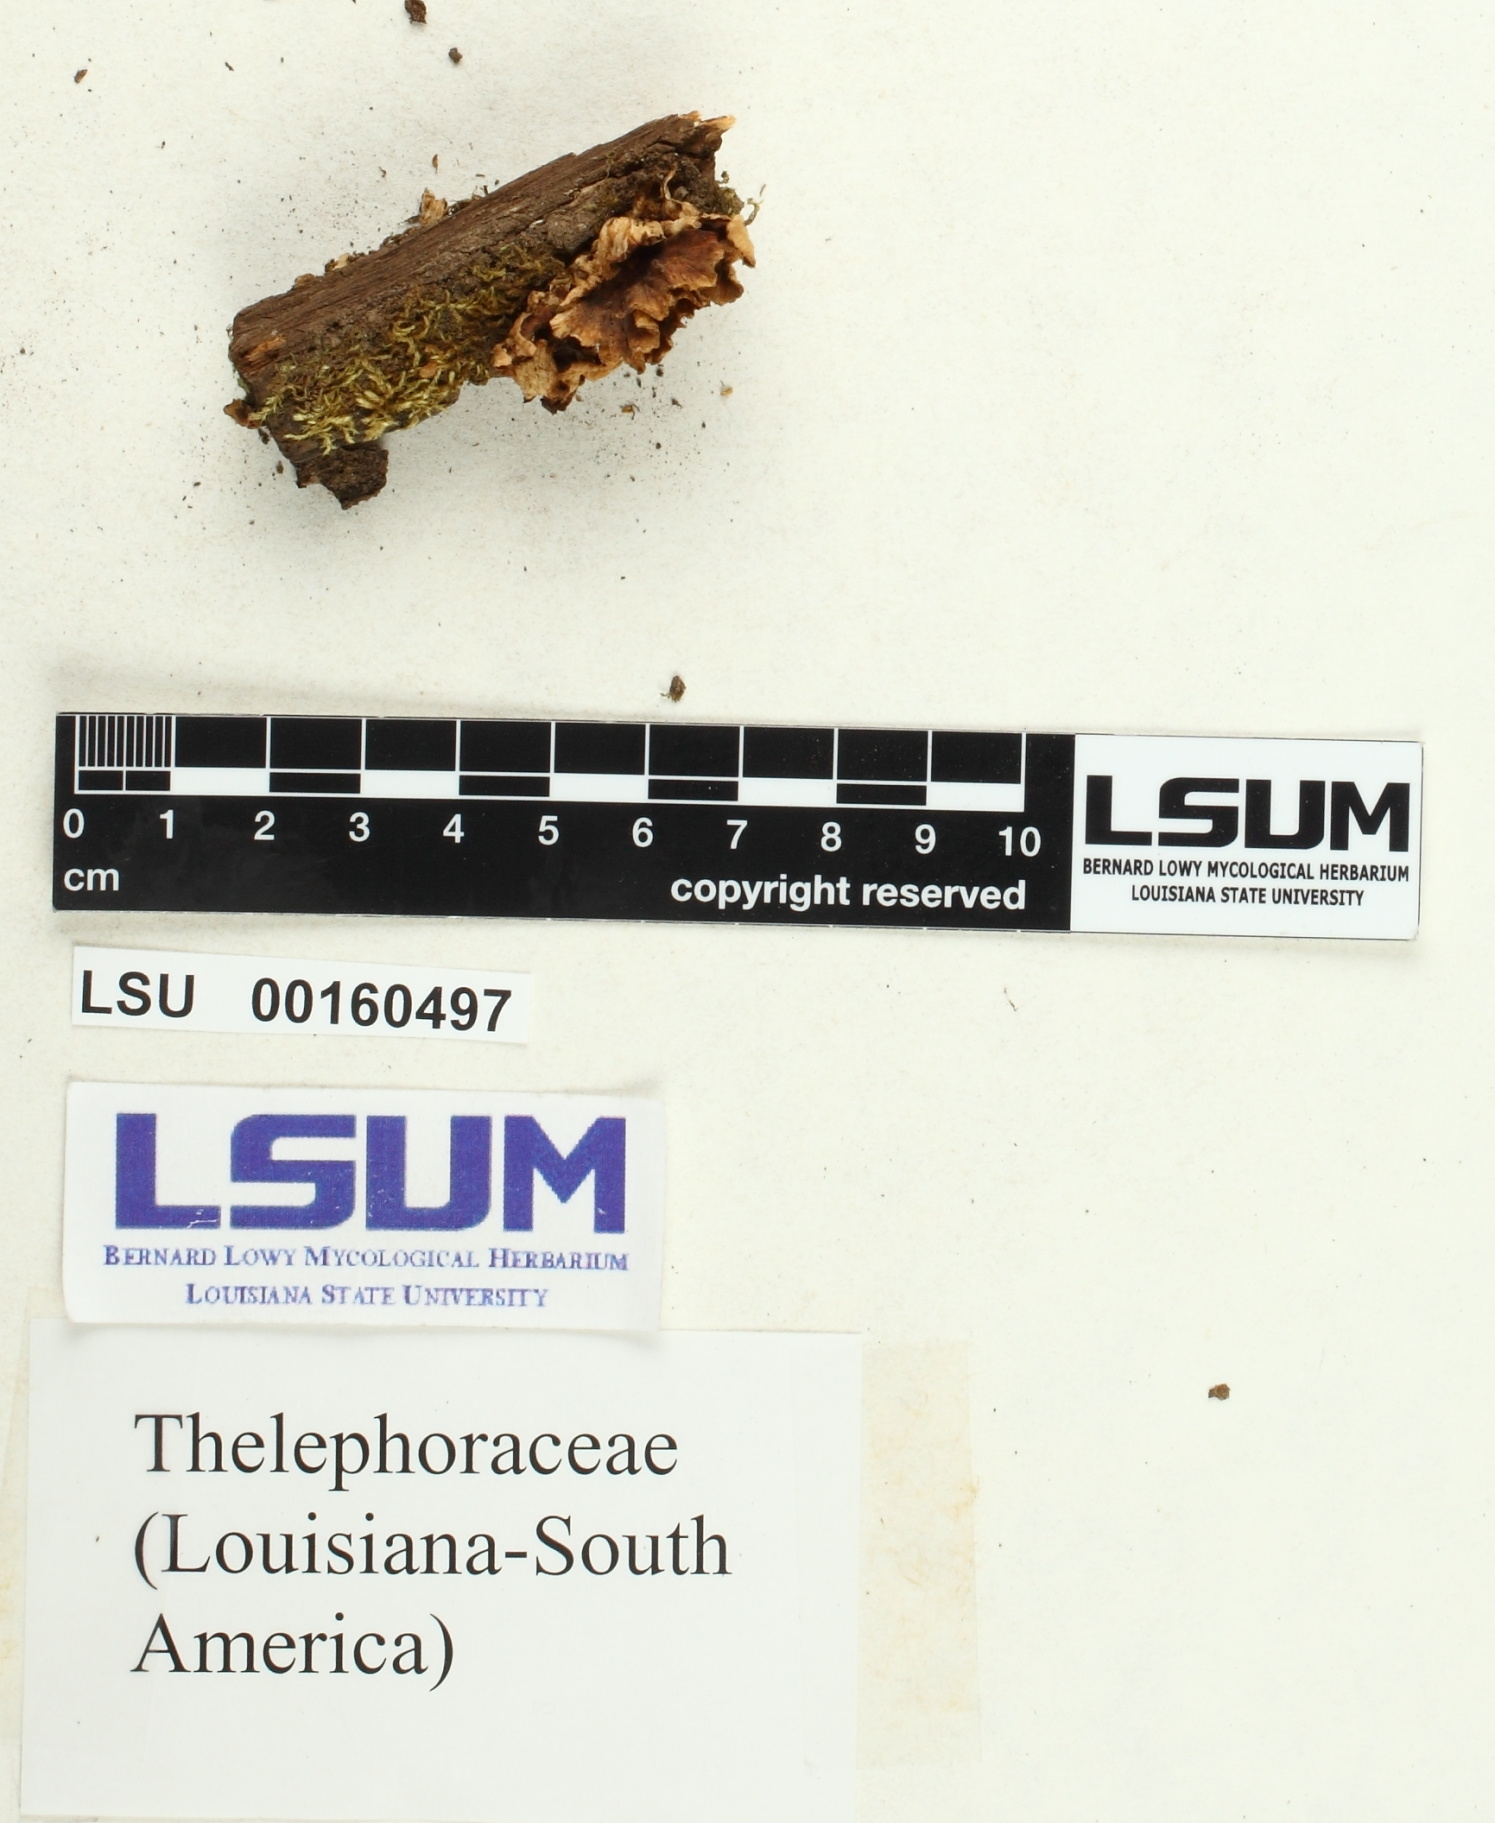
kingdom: Fungi
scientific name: Fungi
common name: Fungi
